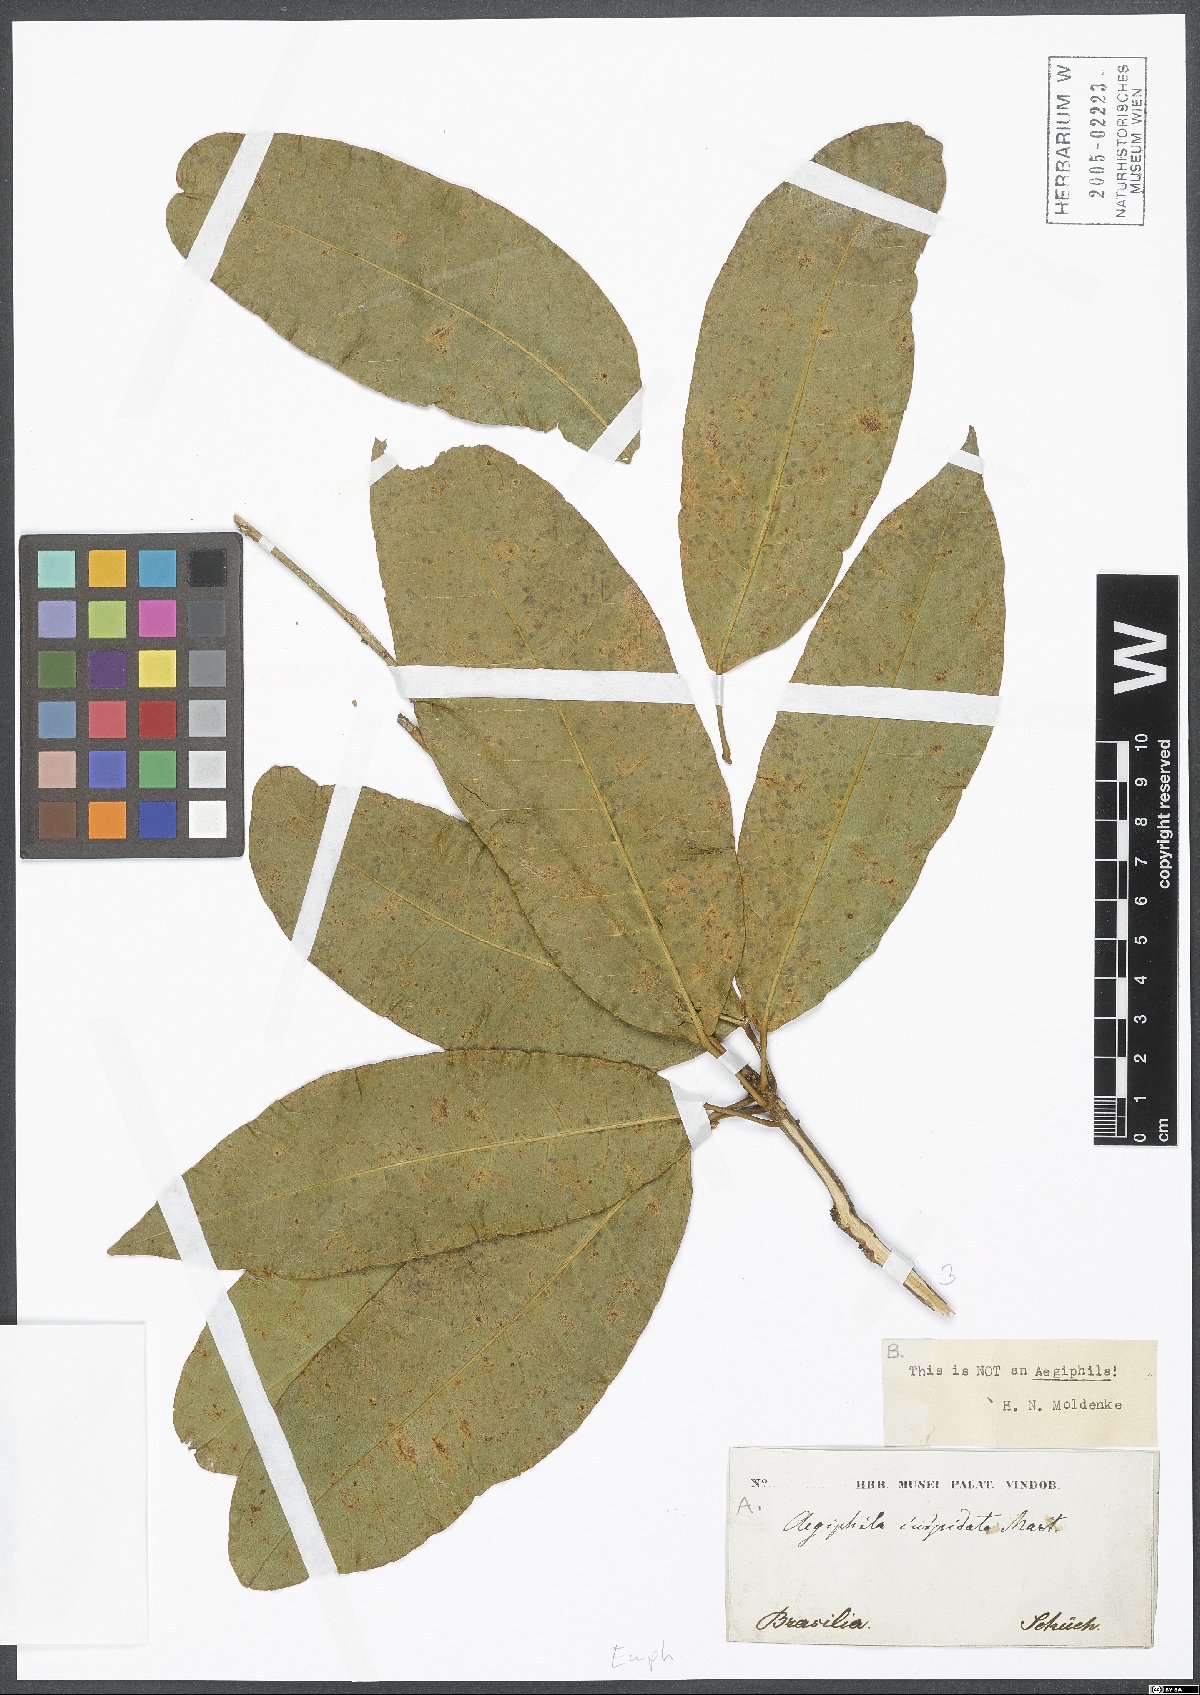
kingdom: Plantae
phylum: Tracheophyta
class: Magnoliopsida
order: Malpighiales
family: Euphorbiaceae
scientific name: Euphorbiaceae
